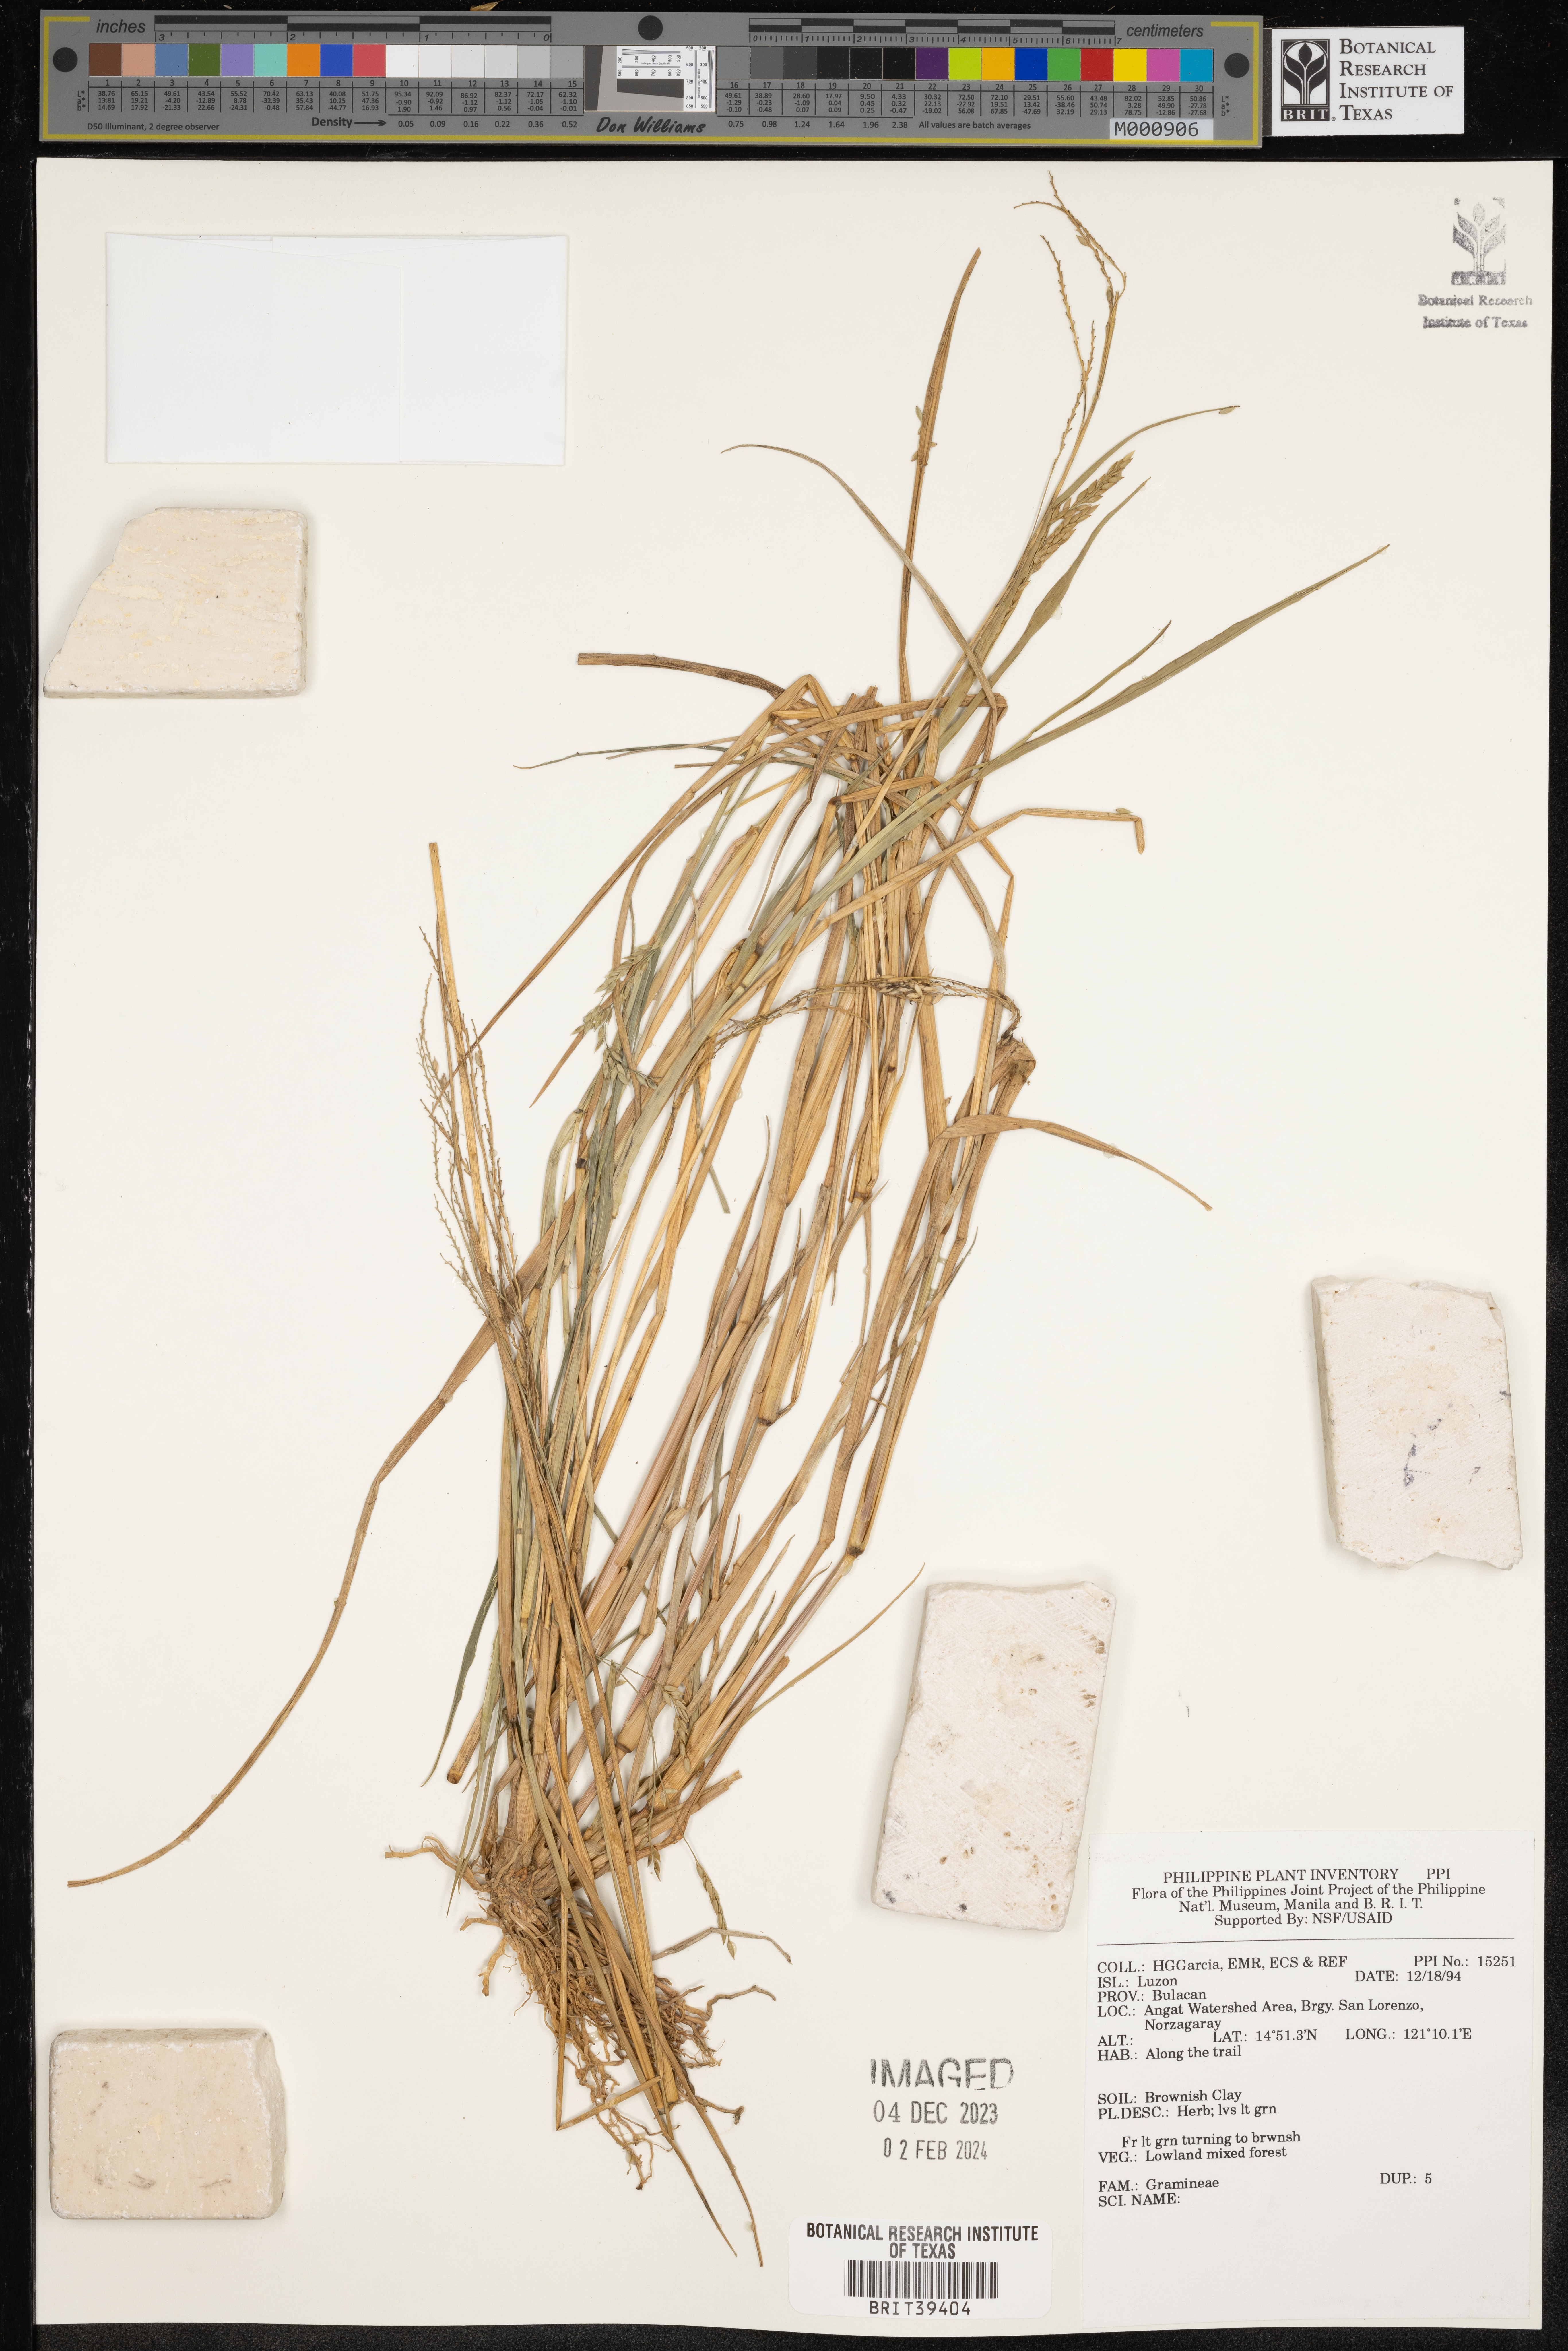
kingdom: Plantae
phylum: Tracheophyta
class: Liliopsida
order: Poales
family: Poaceae
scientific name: Poaceae
